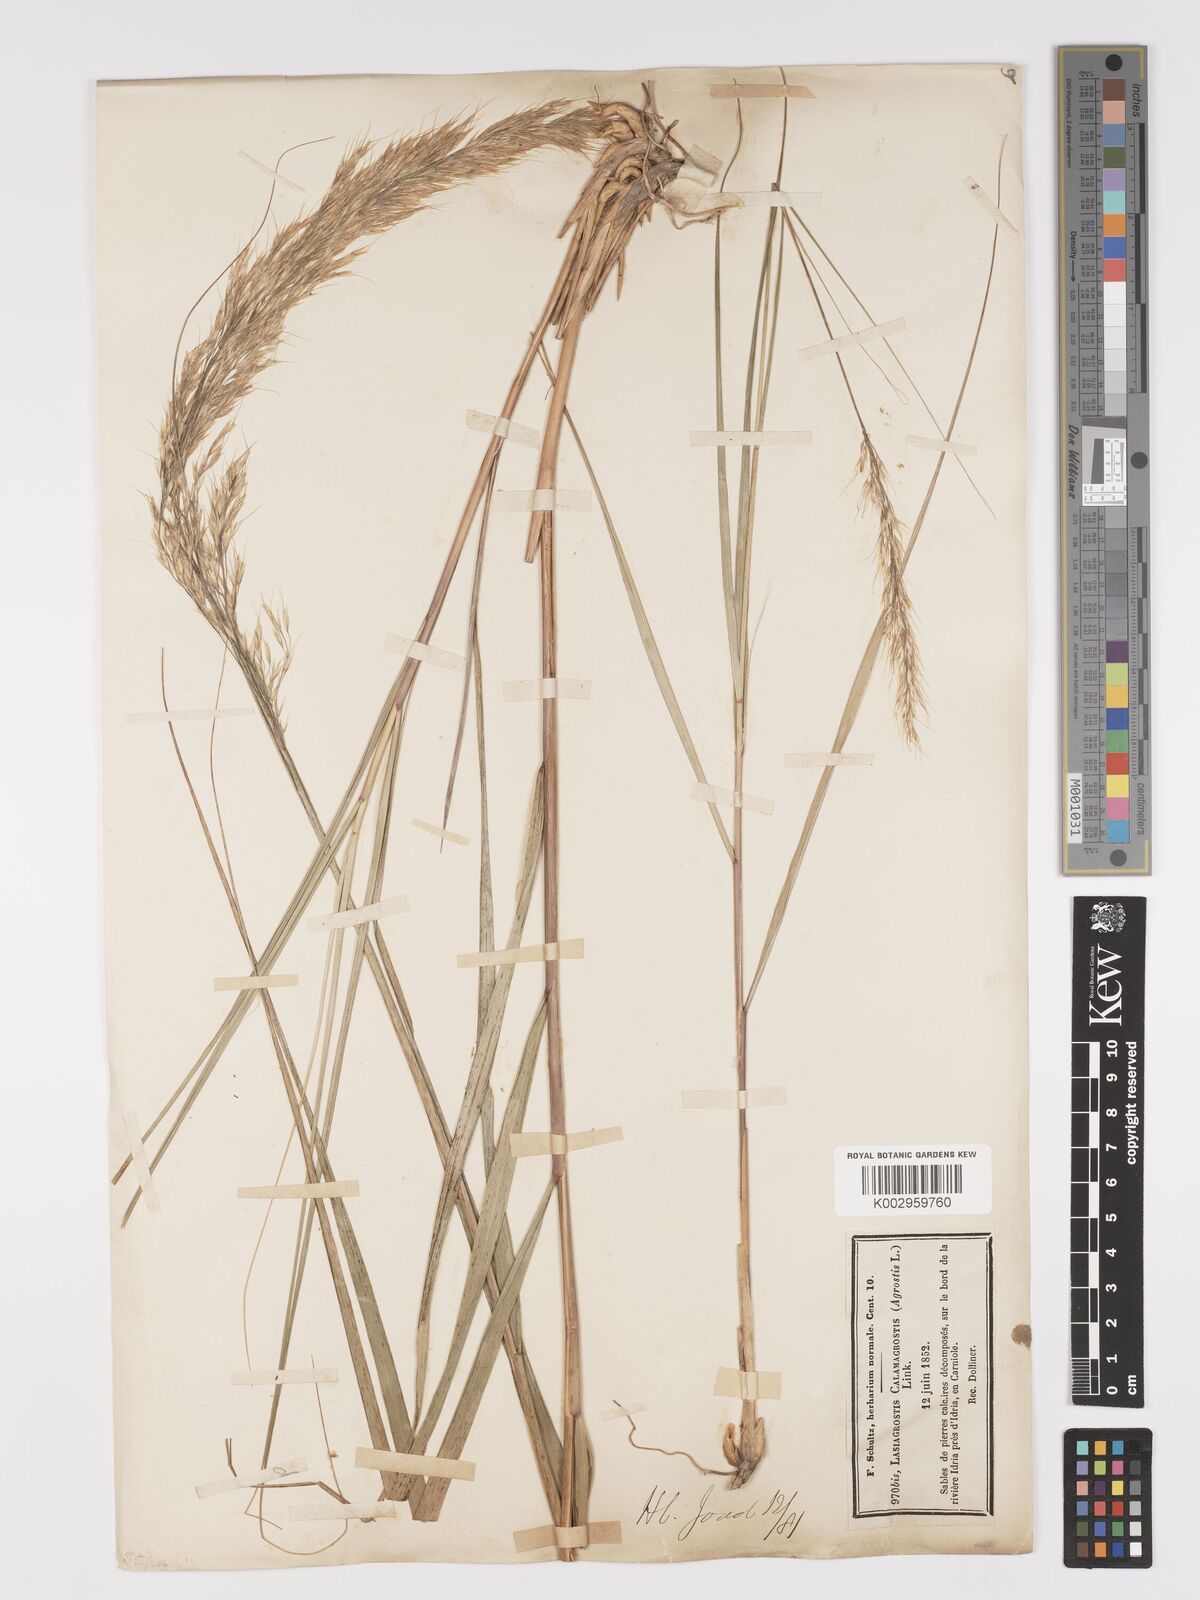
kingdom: Plantae
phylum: Tracheophyta
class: Liliopsida
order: Poales
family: Poaceae
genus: Achnatherum
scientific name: Achnatherum calamagrostis
